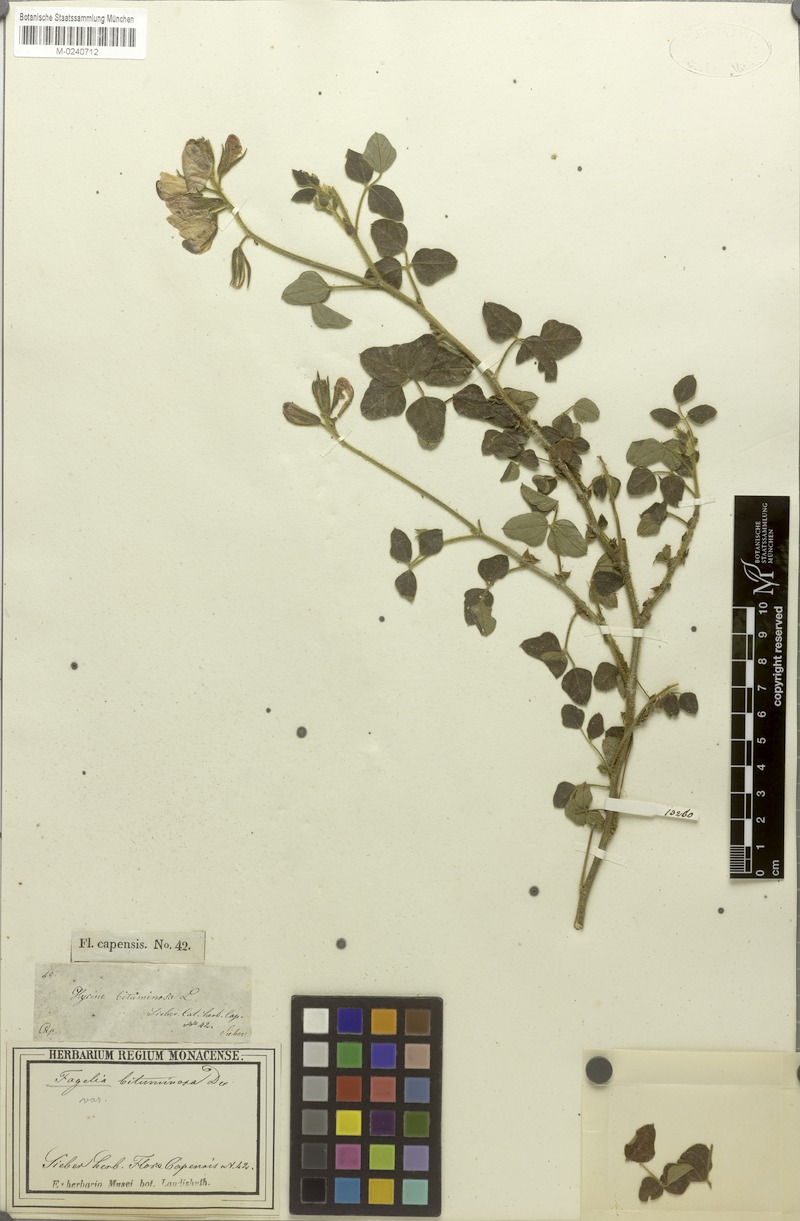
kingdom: Plantae
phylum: Tracheophyta
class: Magnoliopsida
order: Fabales
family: Fabaceae
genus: Bolusafra
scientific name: Bolusafra bituminosa
